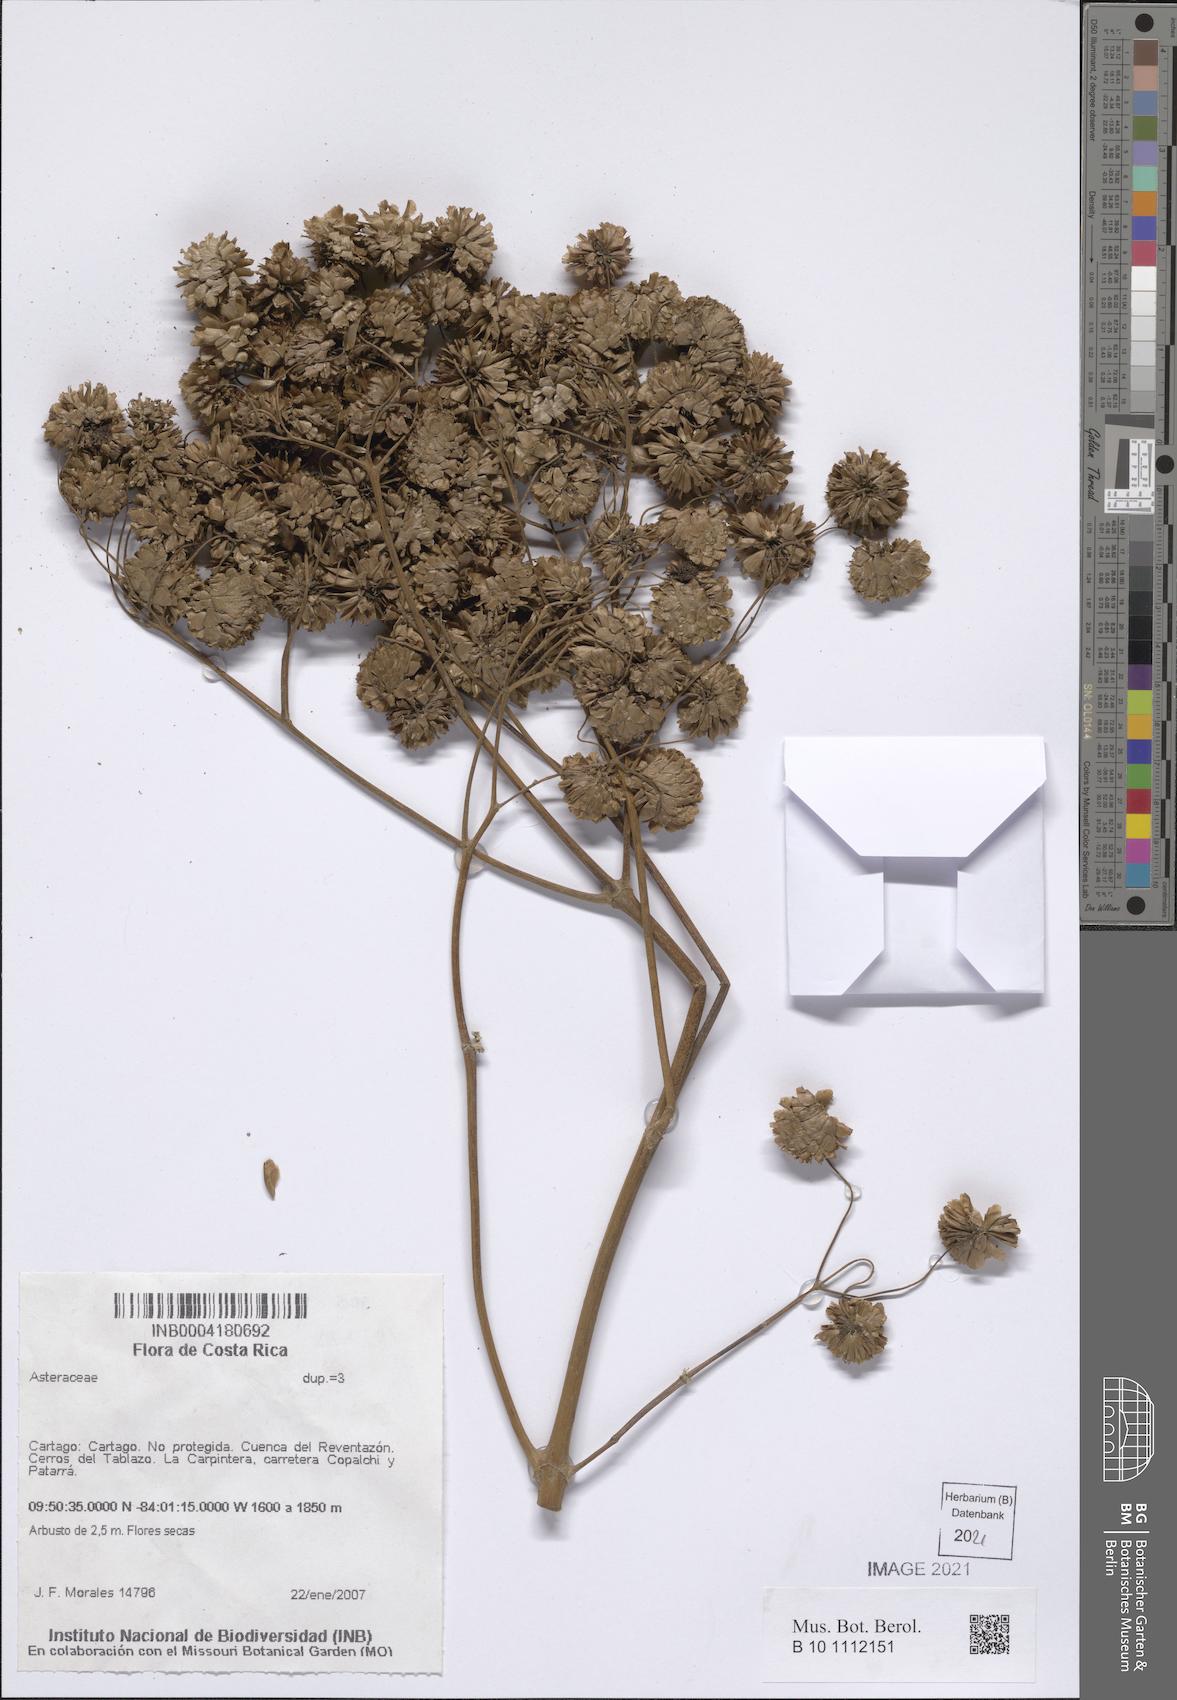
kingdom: Plantae
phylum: Tracheophyta
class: Magnoliopsida
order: Asterales
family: Asteraceae
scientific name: Asteraceae
